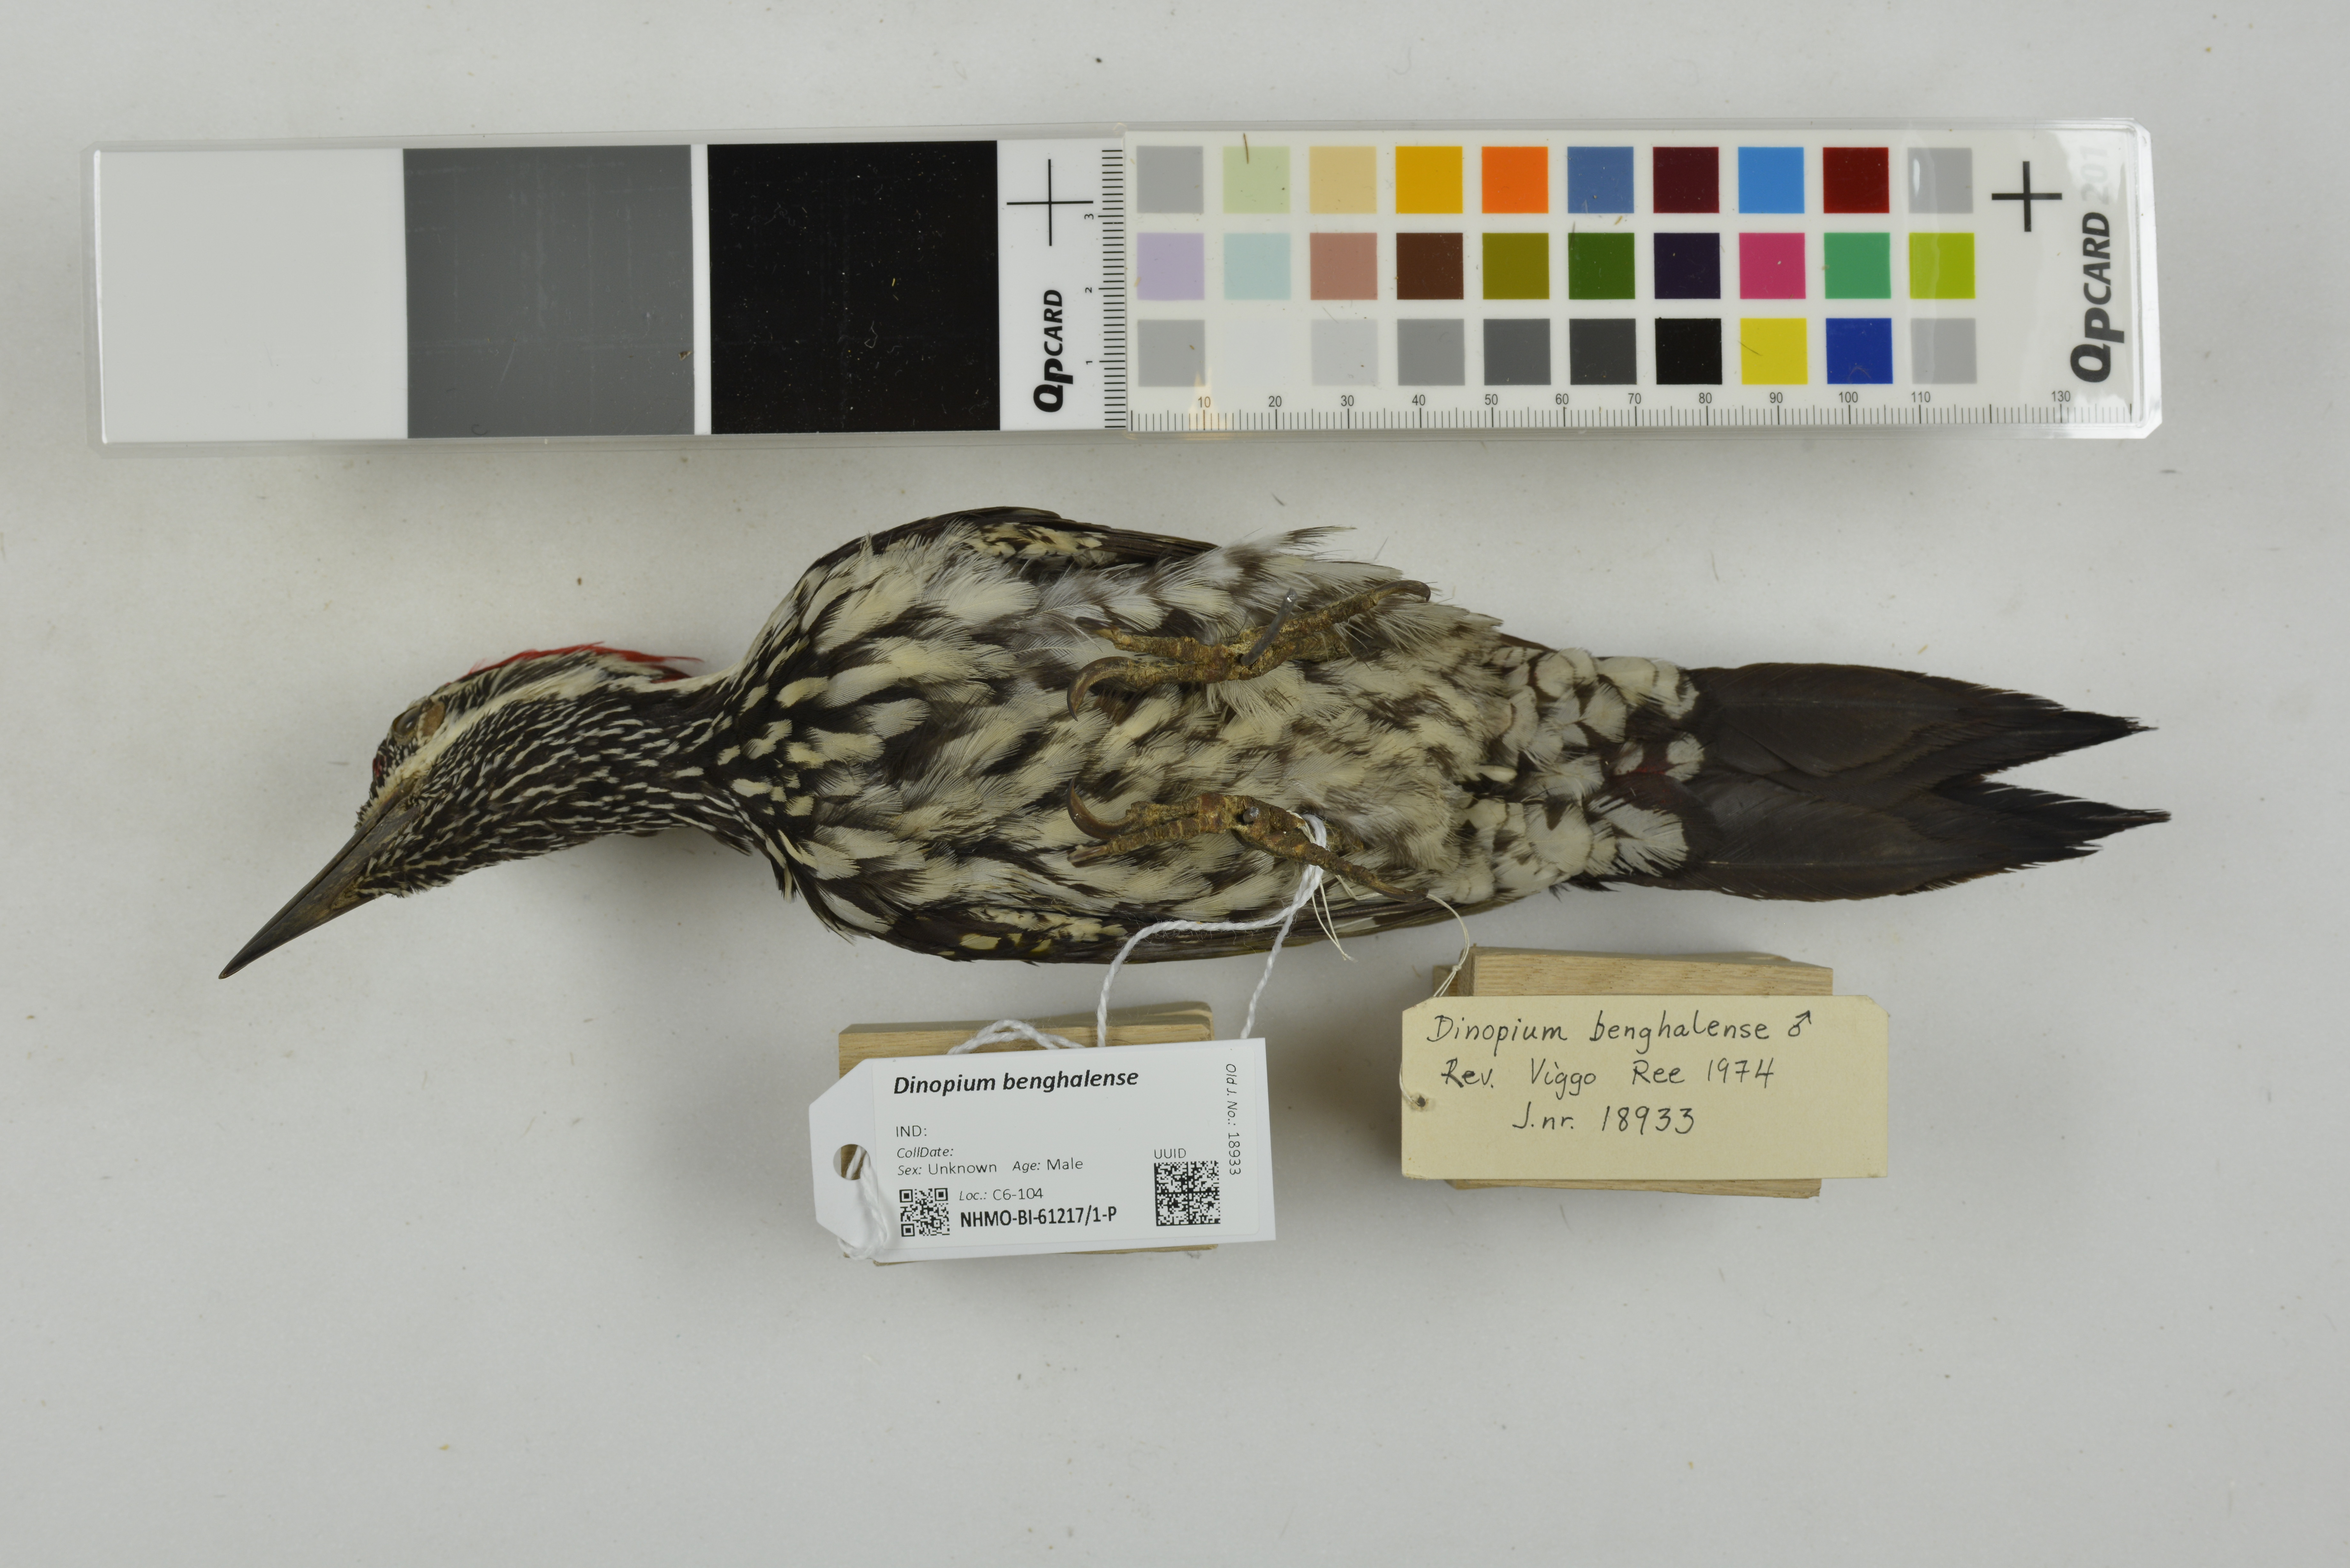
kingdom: Animalia
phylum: Chordata
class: Aves
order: Piciformes
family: Picidae
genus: Dinopium
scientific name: Dinopium benghalense
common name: Black-rumped flameback
